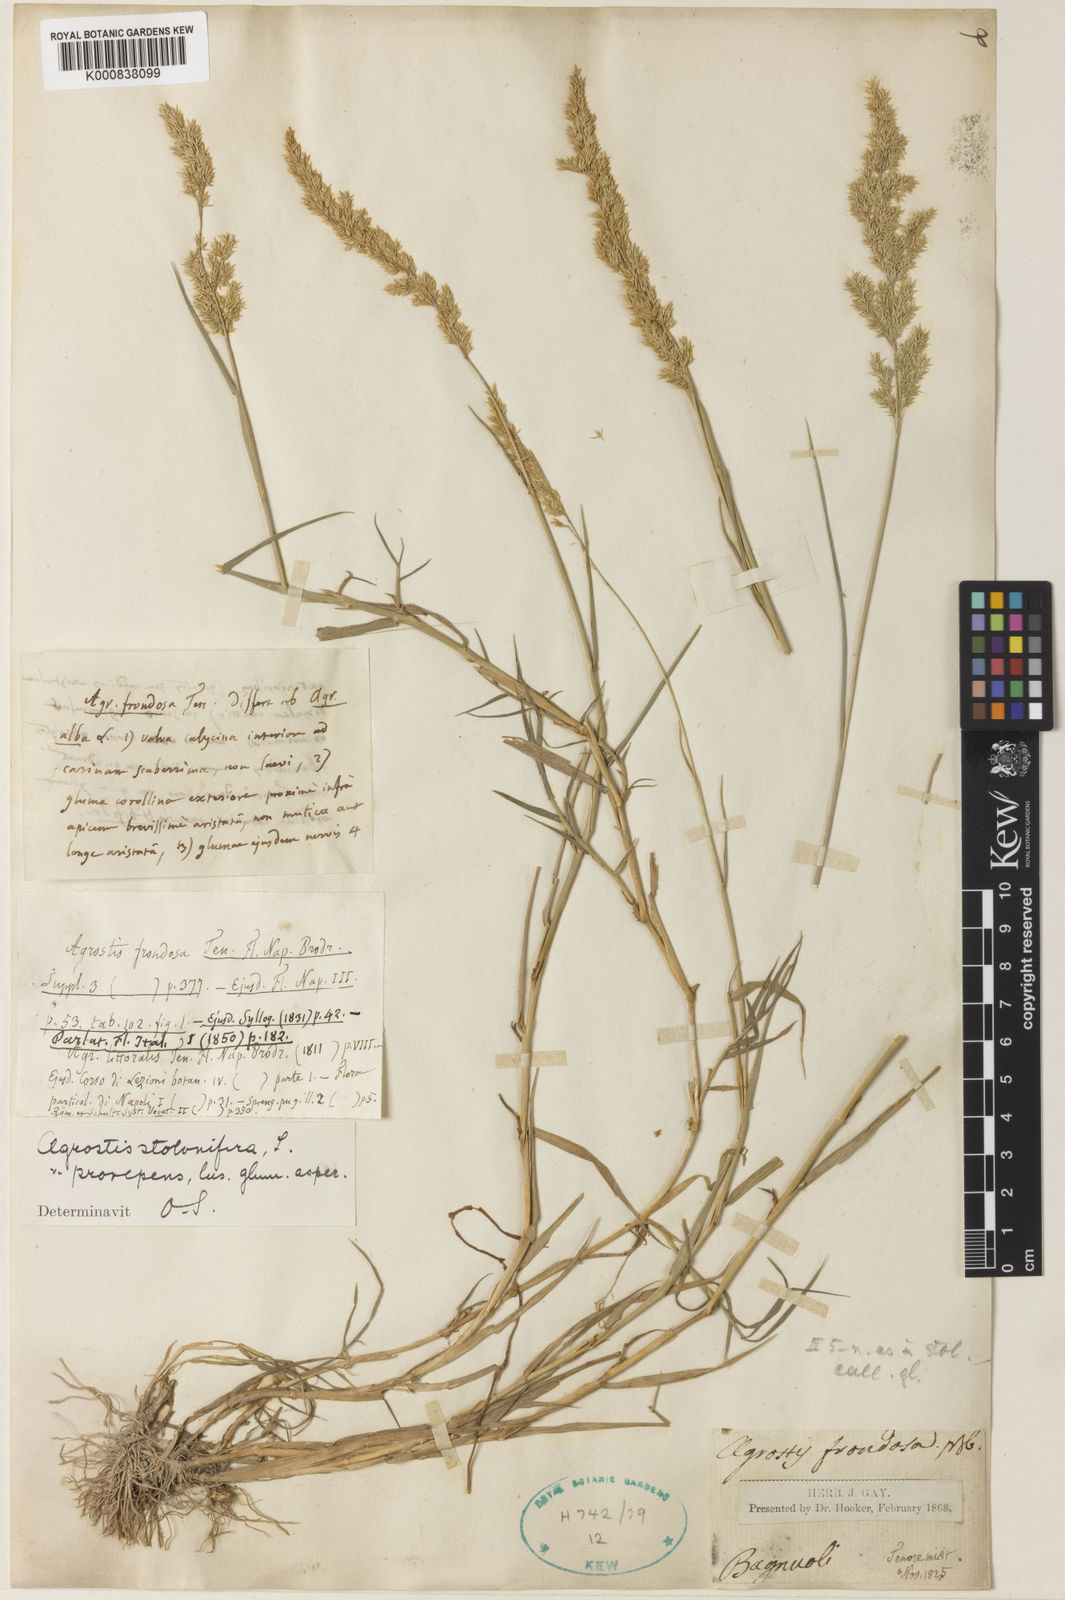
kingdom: Plantae
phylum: Tracheophyta
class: Liliopsida
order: Poales
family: Poaceae
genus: Agrostis
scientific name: Agrostis stolonifera
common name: Creeping bentgrass
